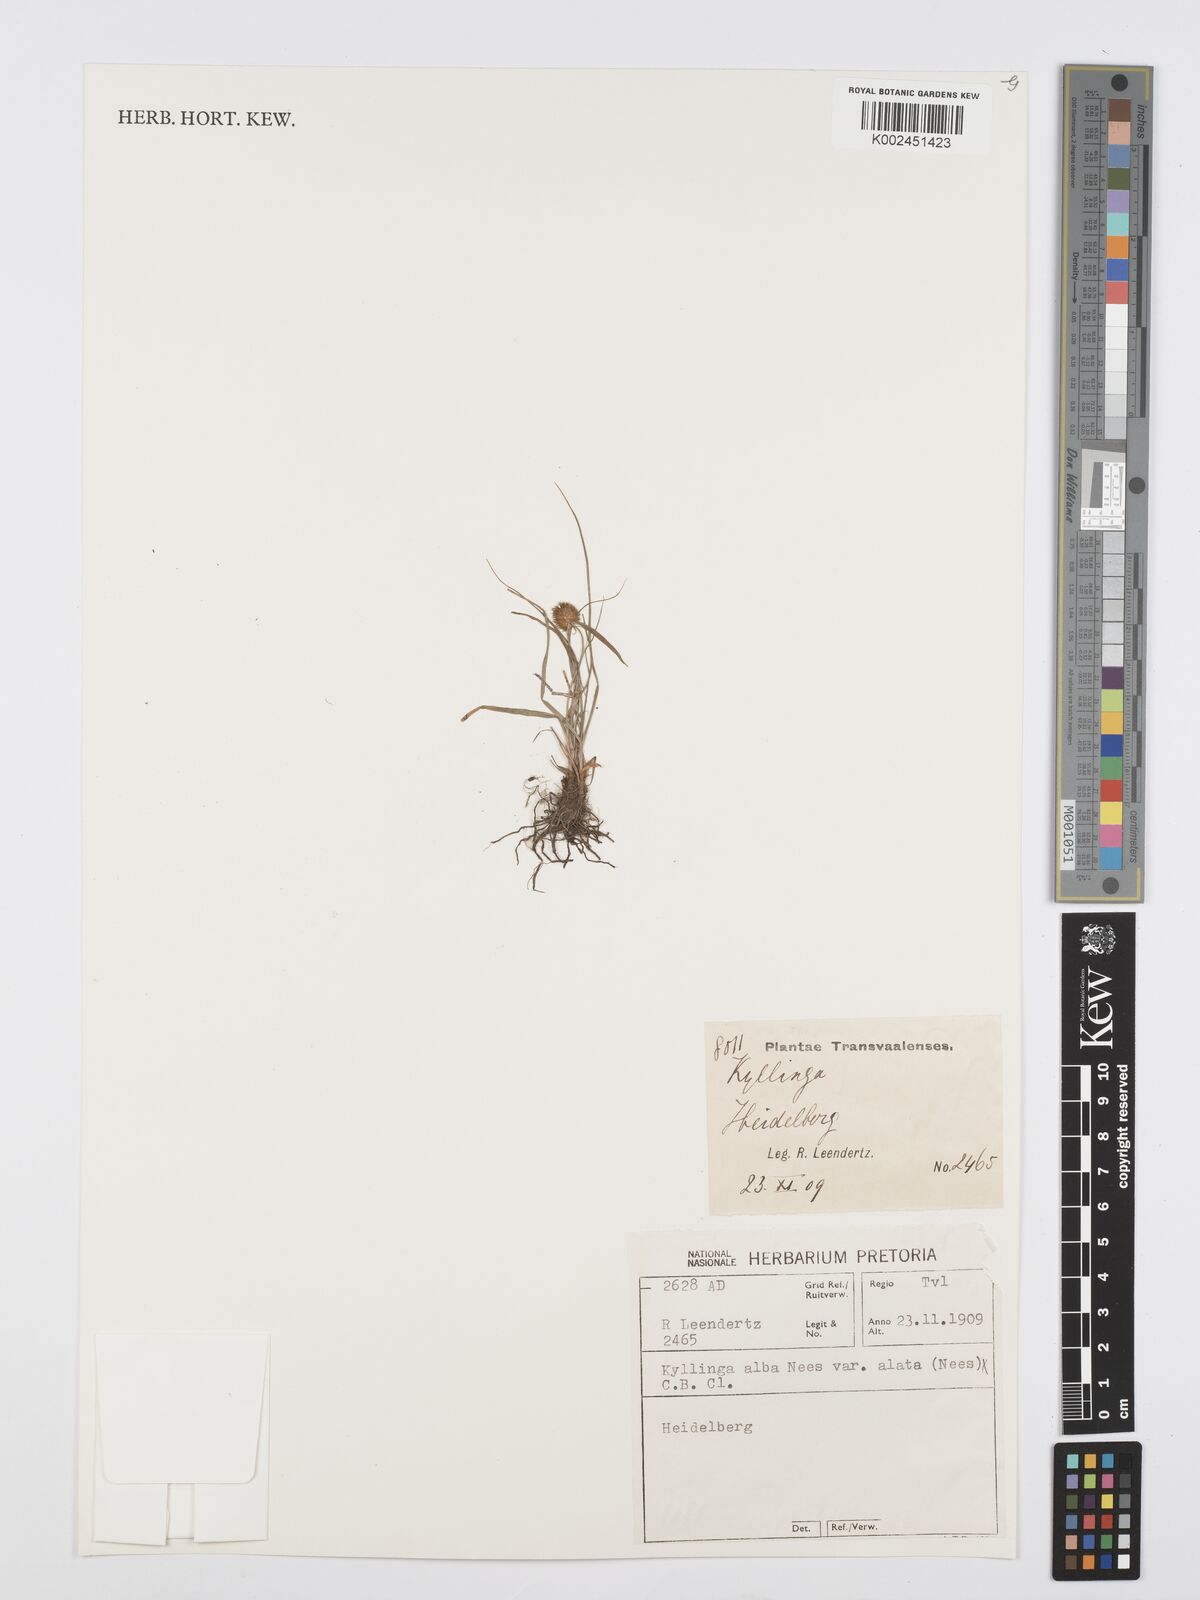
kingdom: Plantae
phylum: Tracheophyta
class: Liliopsida
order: Poales
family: Cyperaceae
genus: Cyperus
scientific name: Cyperus alatus
